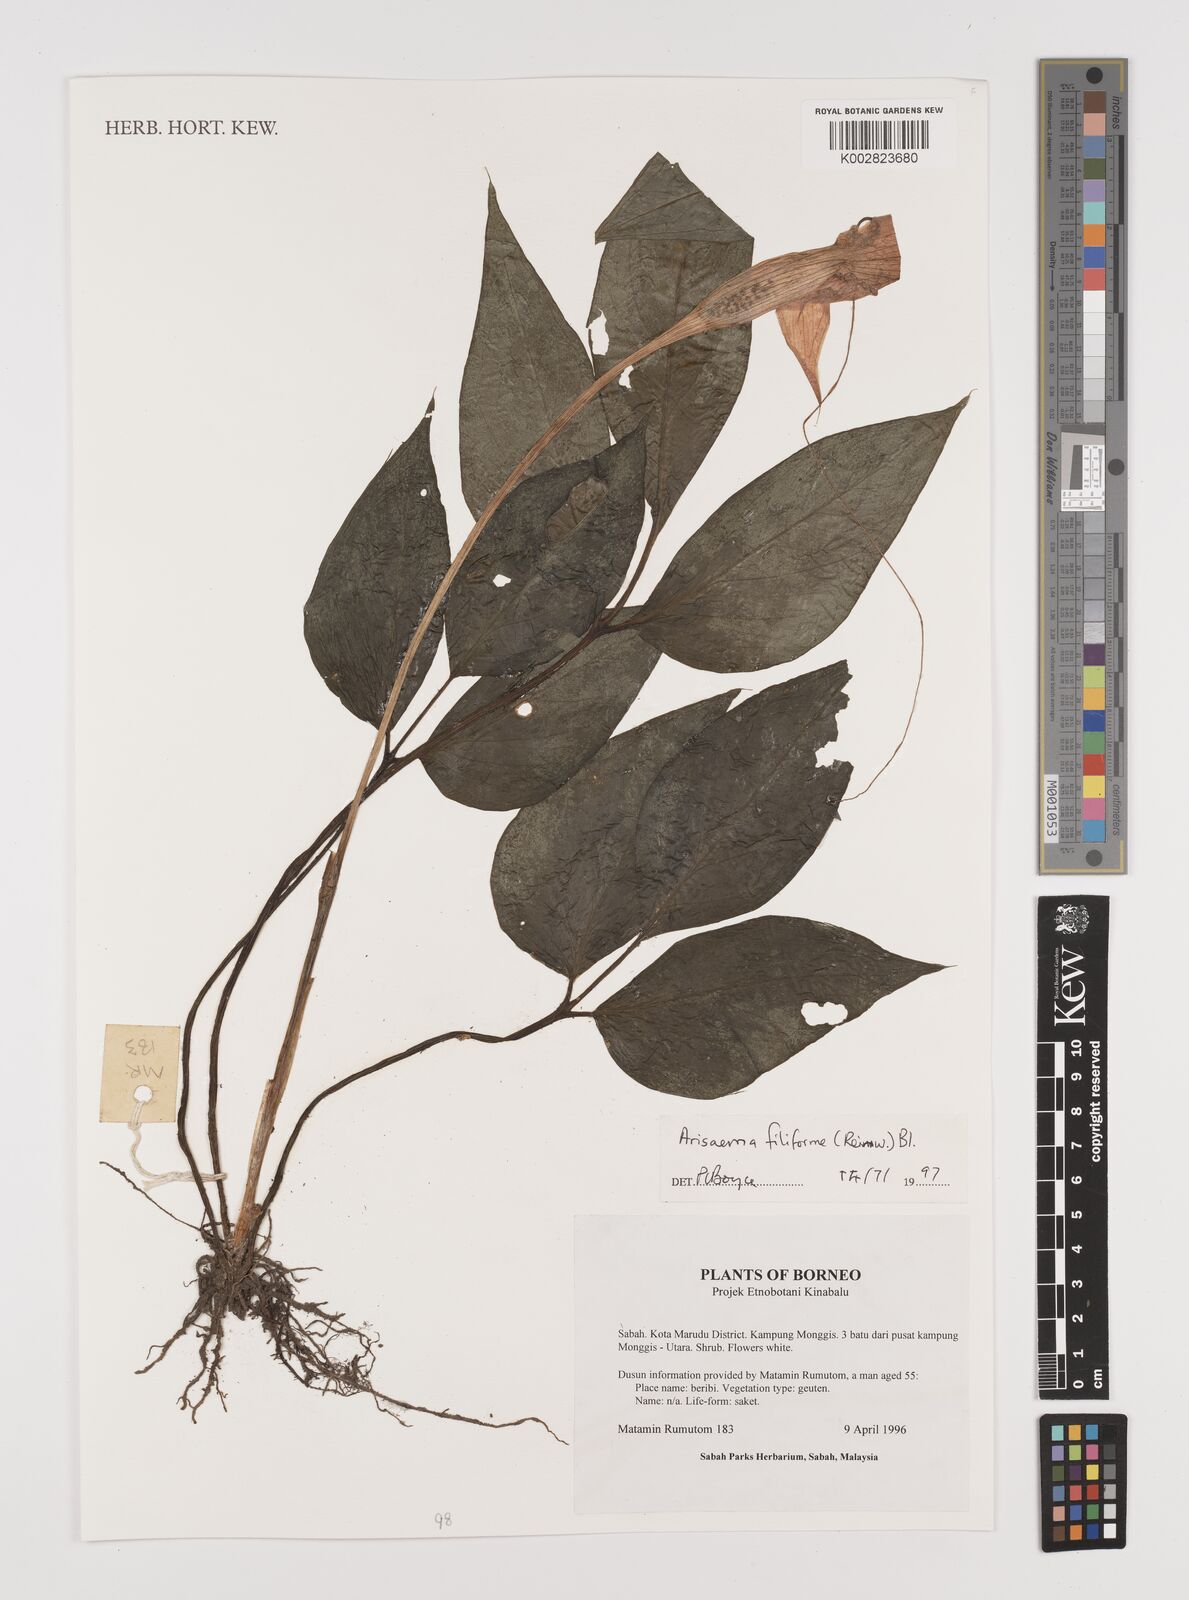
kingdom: Plantae
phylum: Tracheophyta
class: Liliopsida
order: Alismatales
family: Araceae
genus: Arisaema
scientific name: Arisaema filiforme
